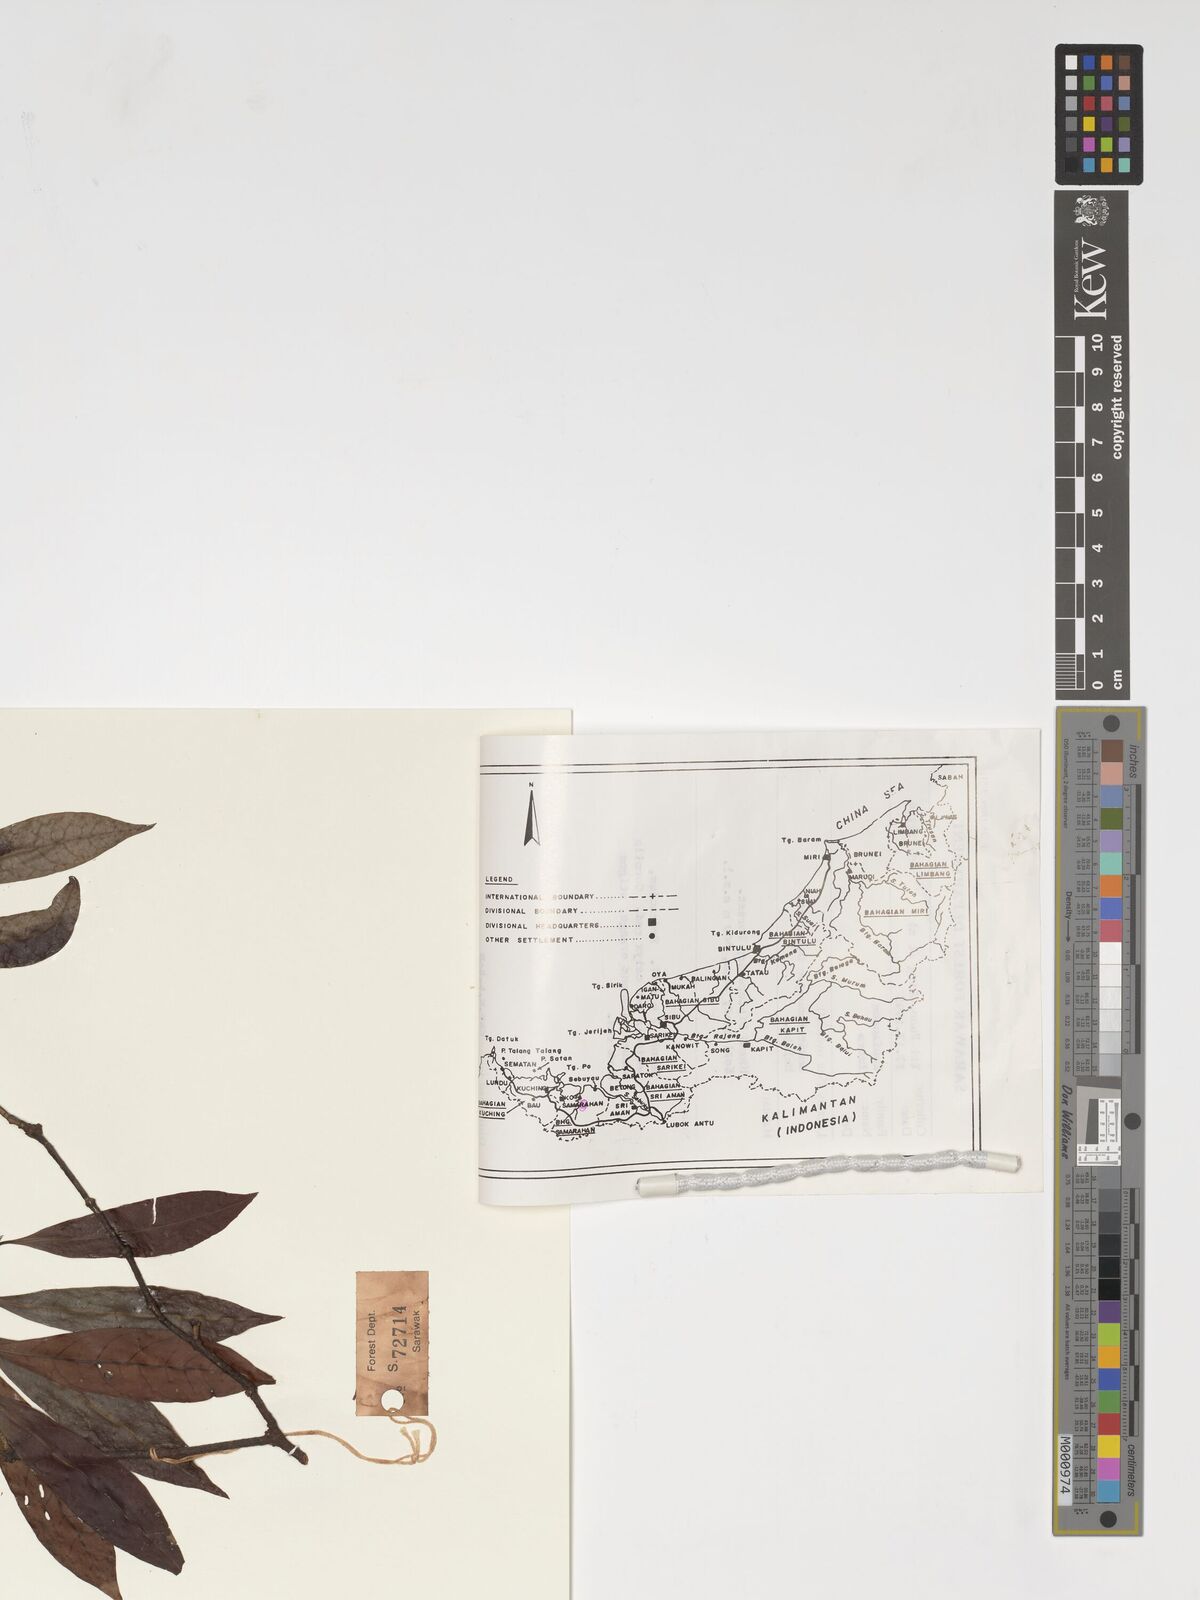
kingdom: Plantae
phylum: Tracheophyta
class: Magnoliopsida
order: Gentianales
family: Rubiaceae
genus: Ixora
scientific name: Ixora
